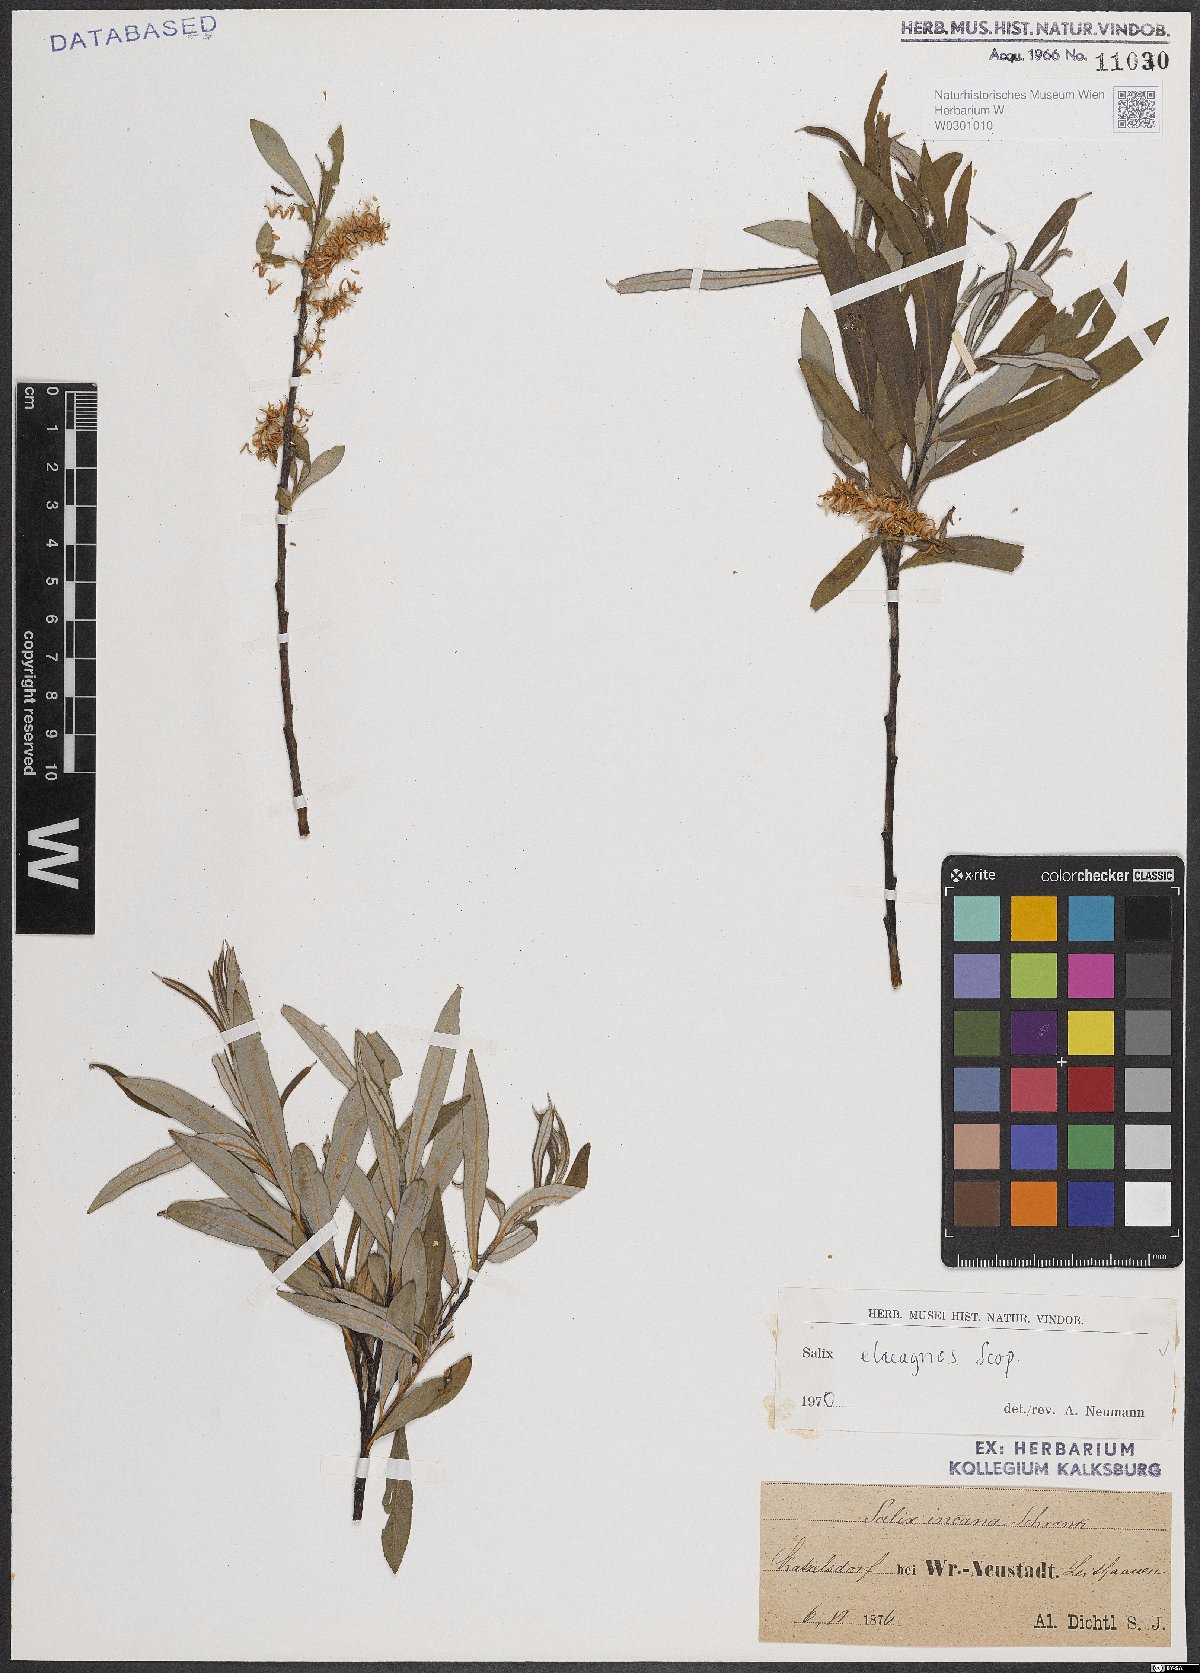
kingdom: Plantae
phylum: Tracheophyta
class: Magnoliopsida
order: Malpighiales
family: Salicaceae
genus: Salix
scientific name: Salix eleagnos
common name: Elaeagnus willow
